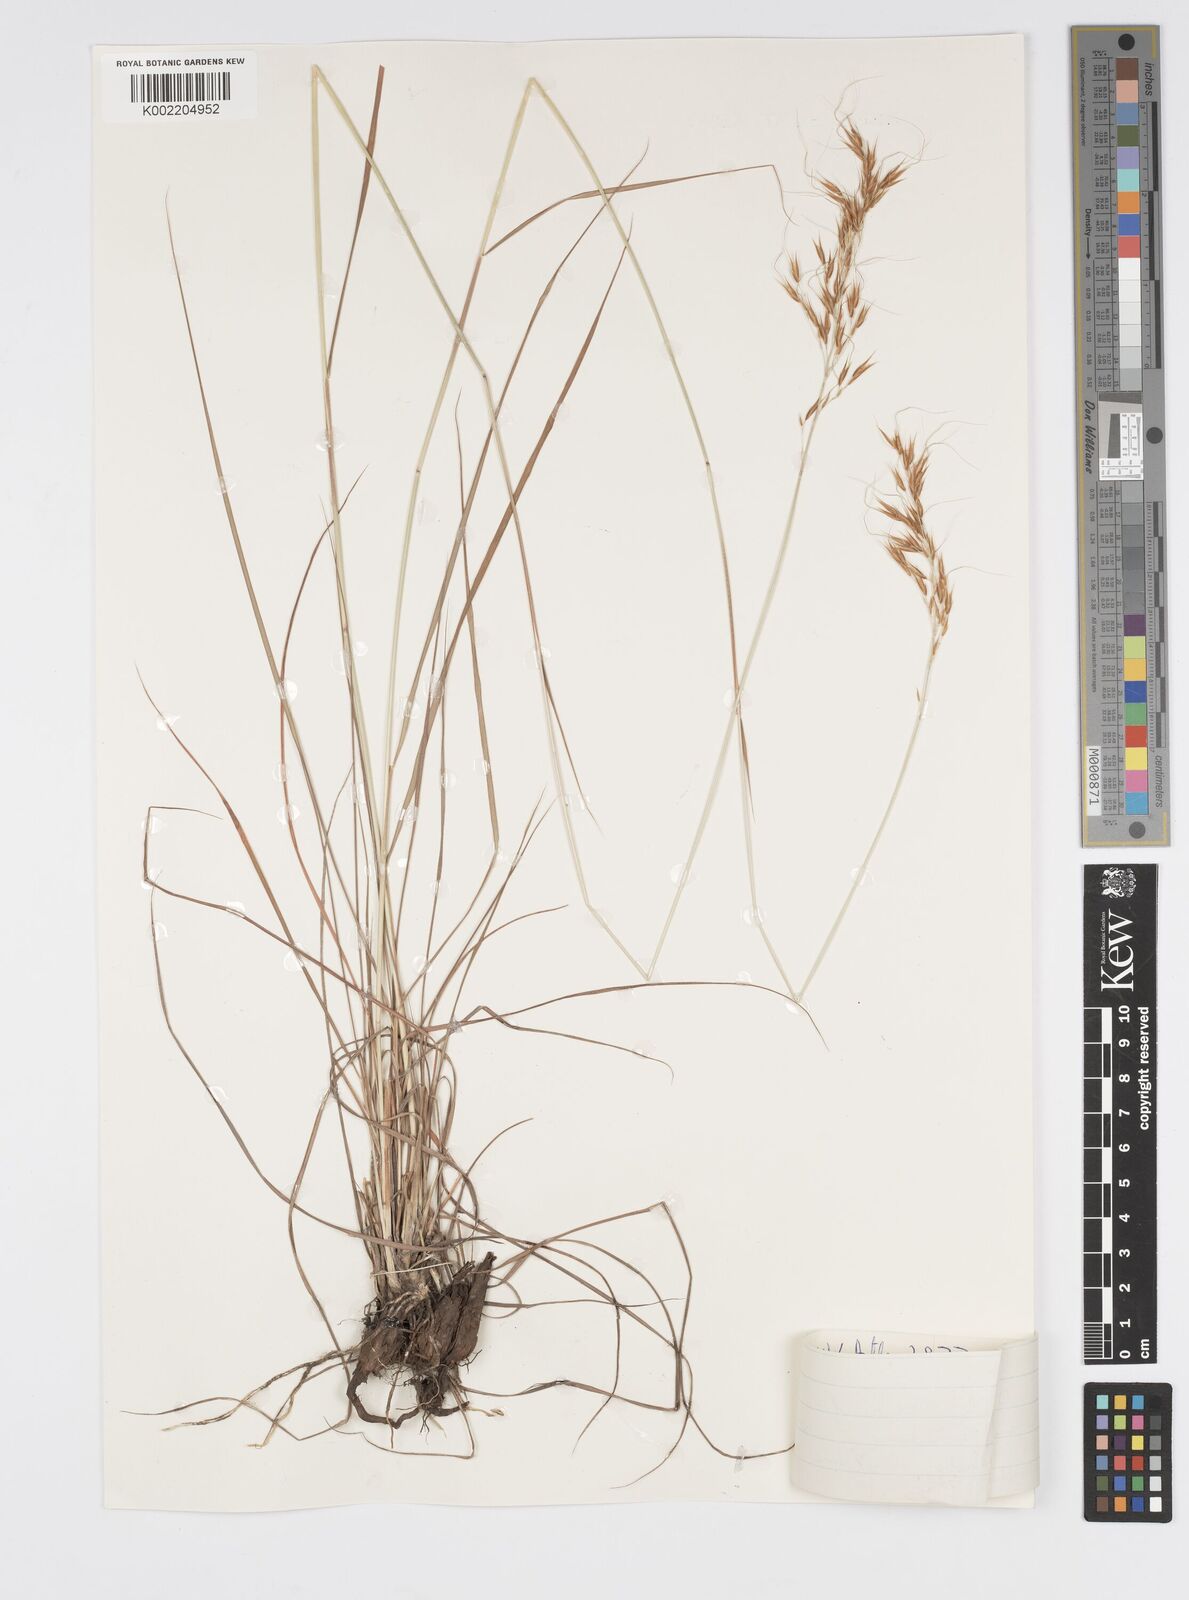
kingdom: Plantae
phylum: Tracheophyta
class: Liliopsida
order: Poales
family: Poaceae
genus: Loudetia
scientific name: Loudetia flavida
